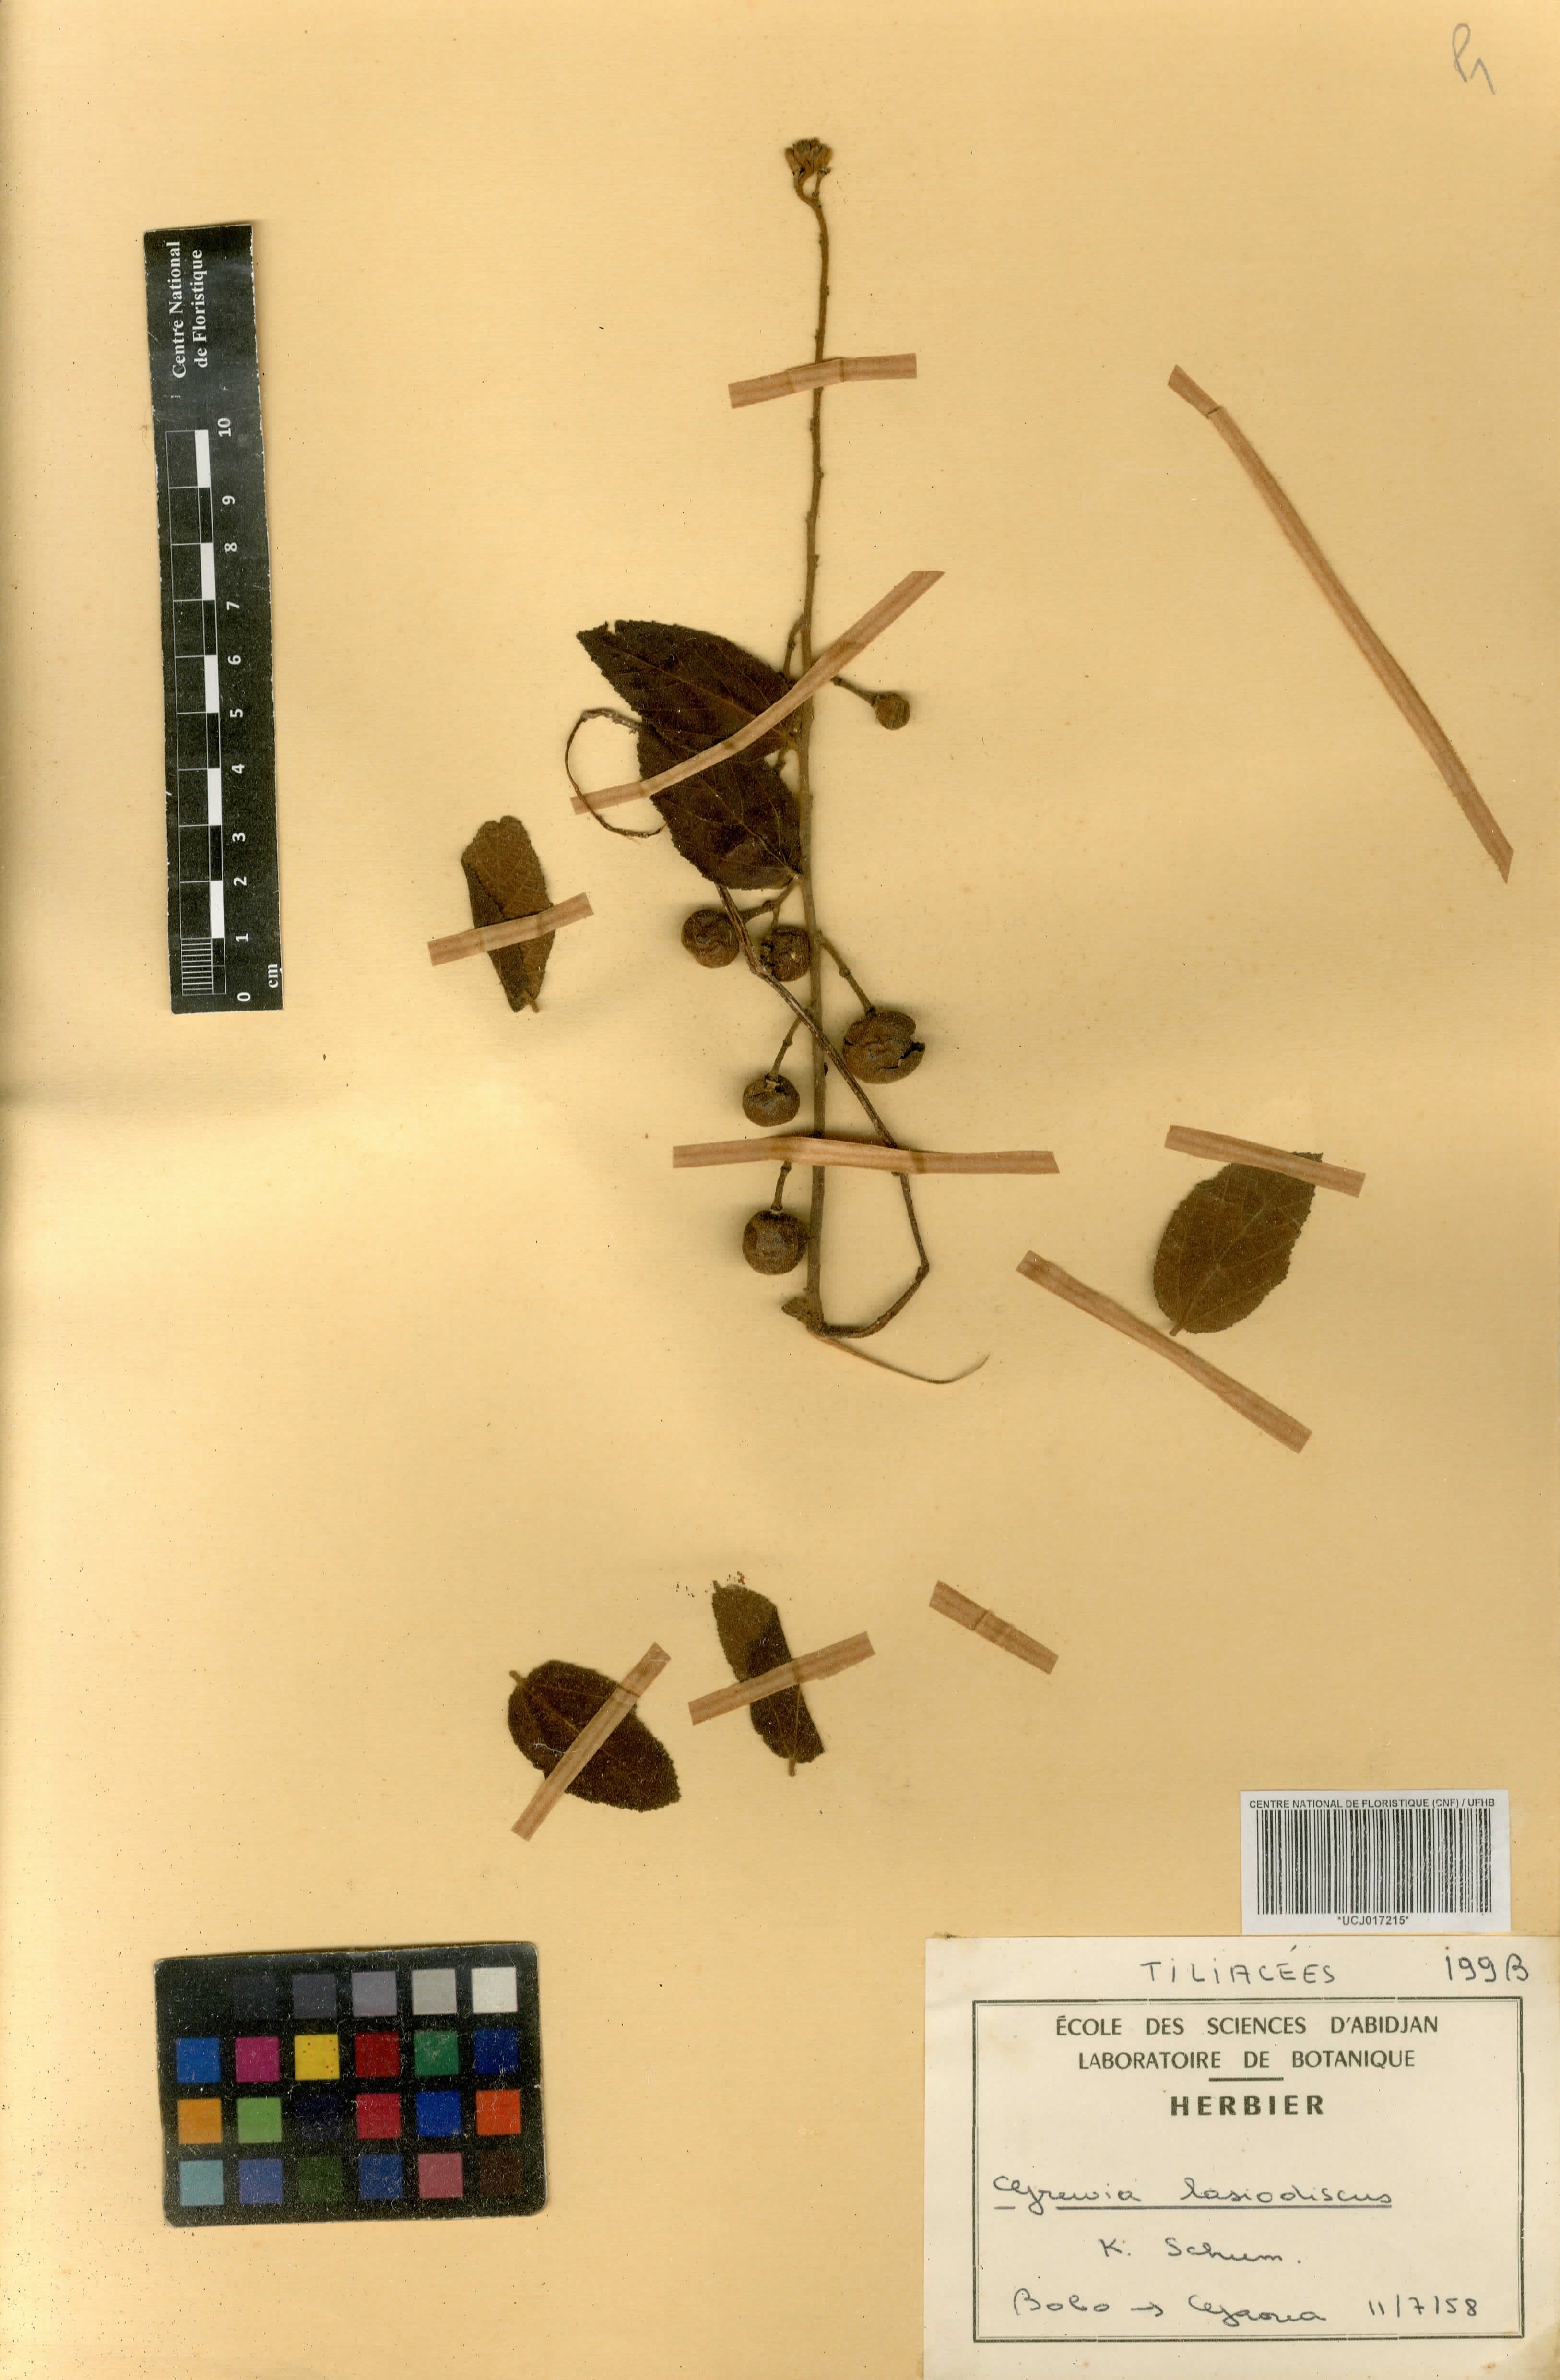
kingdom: Plantae
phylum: Tracheophyta
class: Magnoliopsida
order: Malvales
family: Malvaceae
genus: Grewia
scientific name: Grewia lasiodiscus
